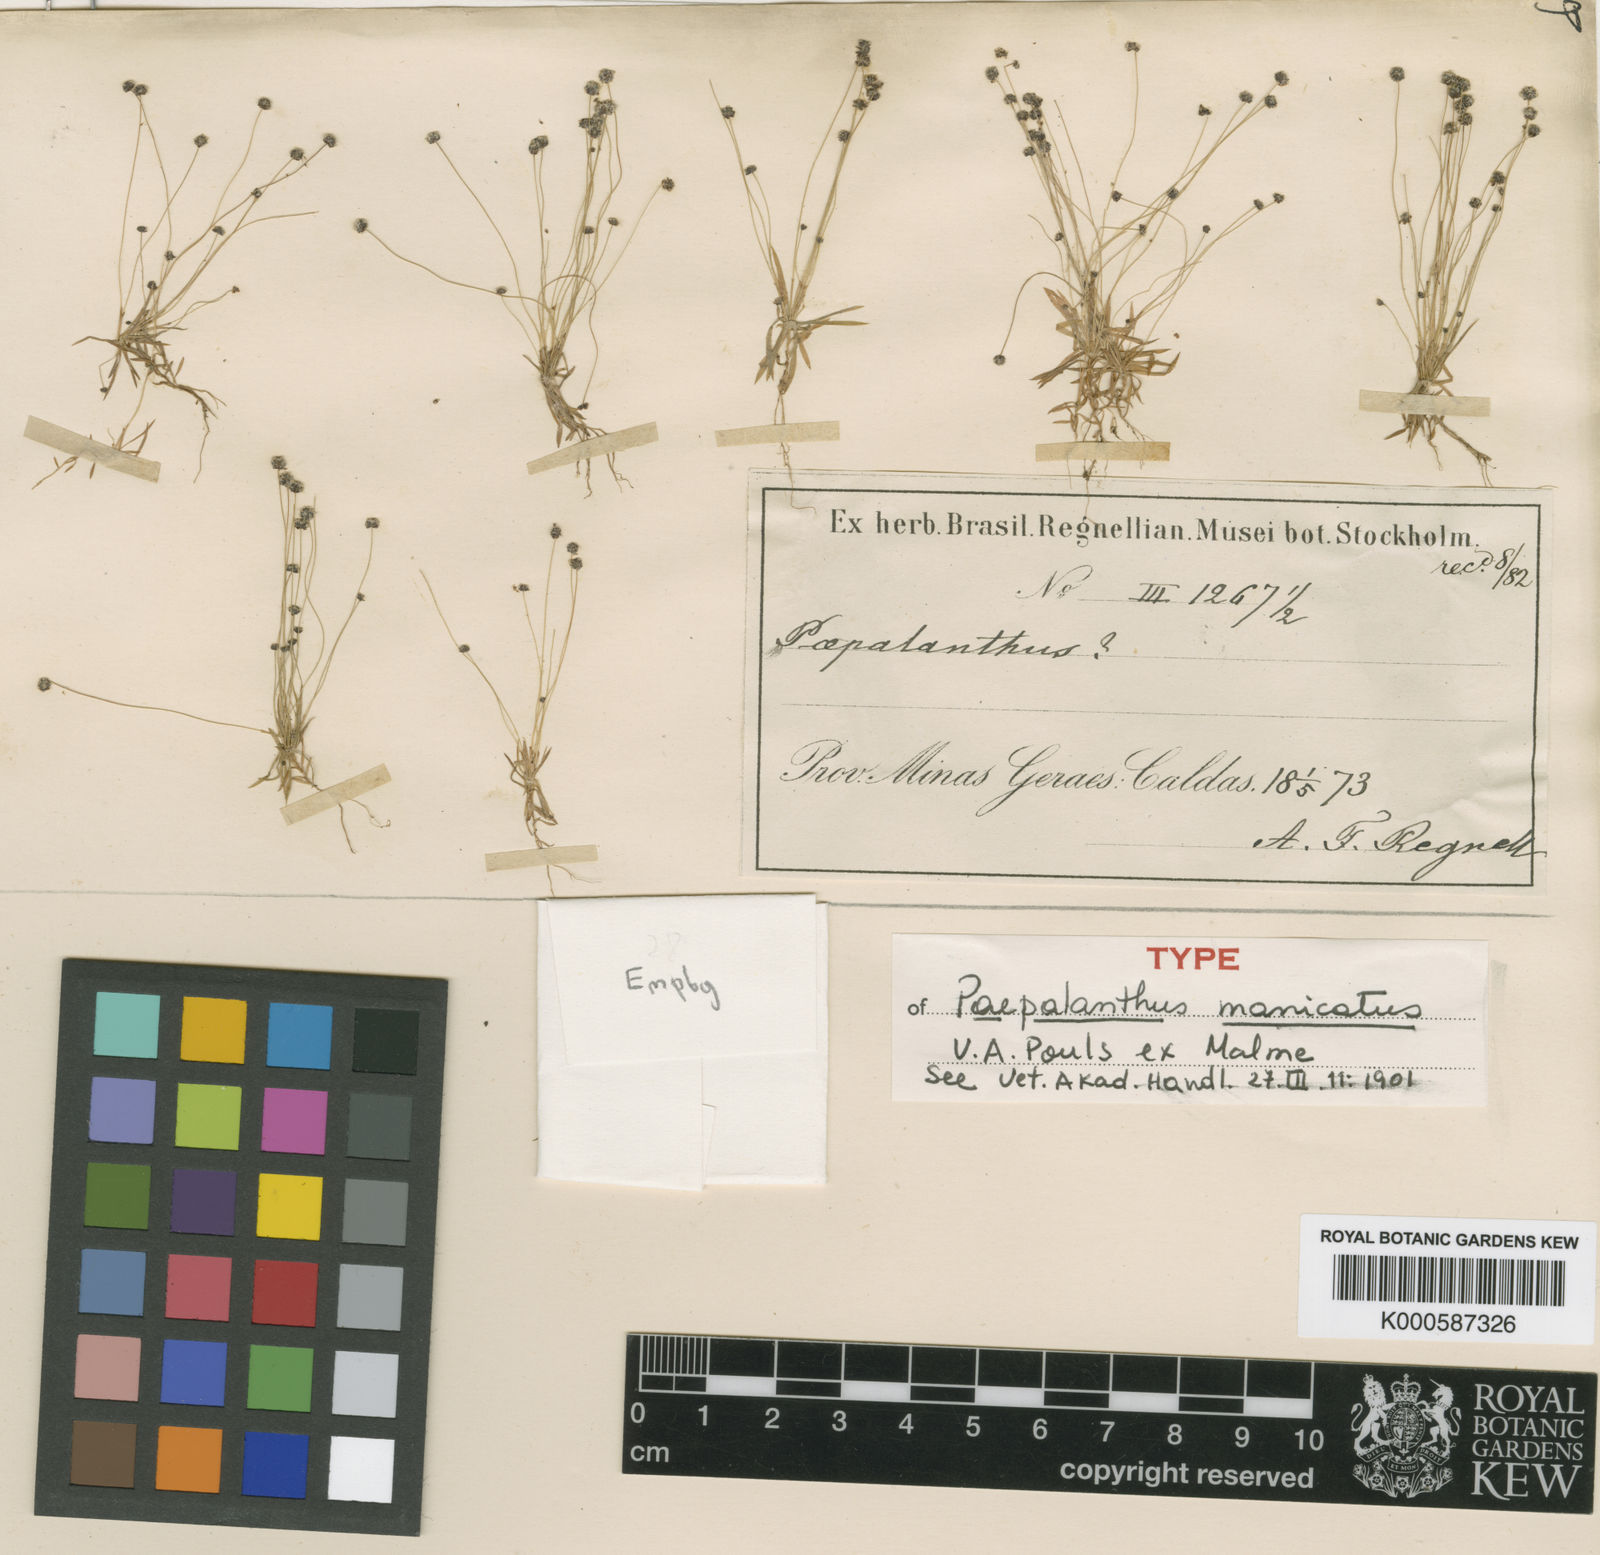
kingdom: Plantae
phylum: Tracheophyta
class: Liliopsida
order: Poales
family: Eriocaulaceae
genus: Paepalanthus
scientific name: Paepalanthus manicatus
